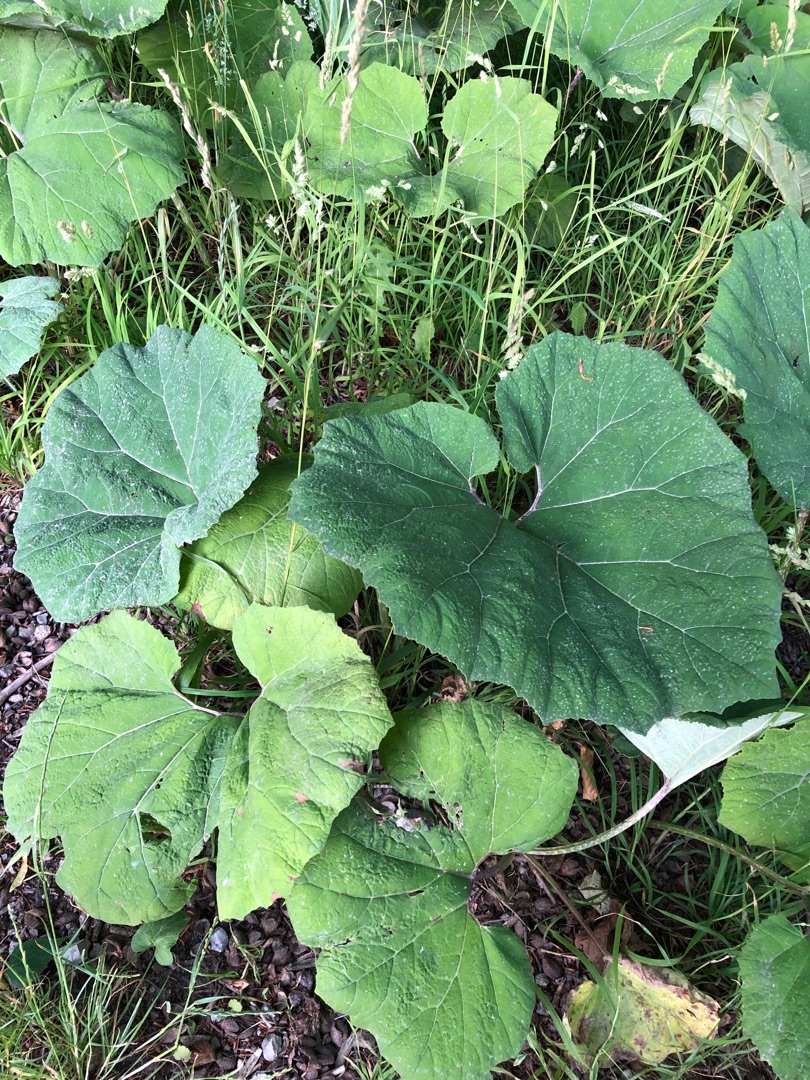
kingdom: Plantae
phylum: Tracheophyta
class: Magnoliopsida
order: Asterales
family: Asteraceae
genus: Petasites
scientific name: Petasites hybridus
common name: Rød hestehov
